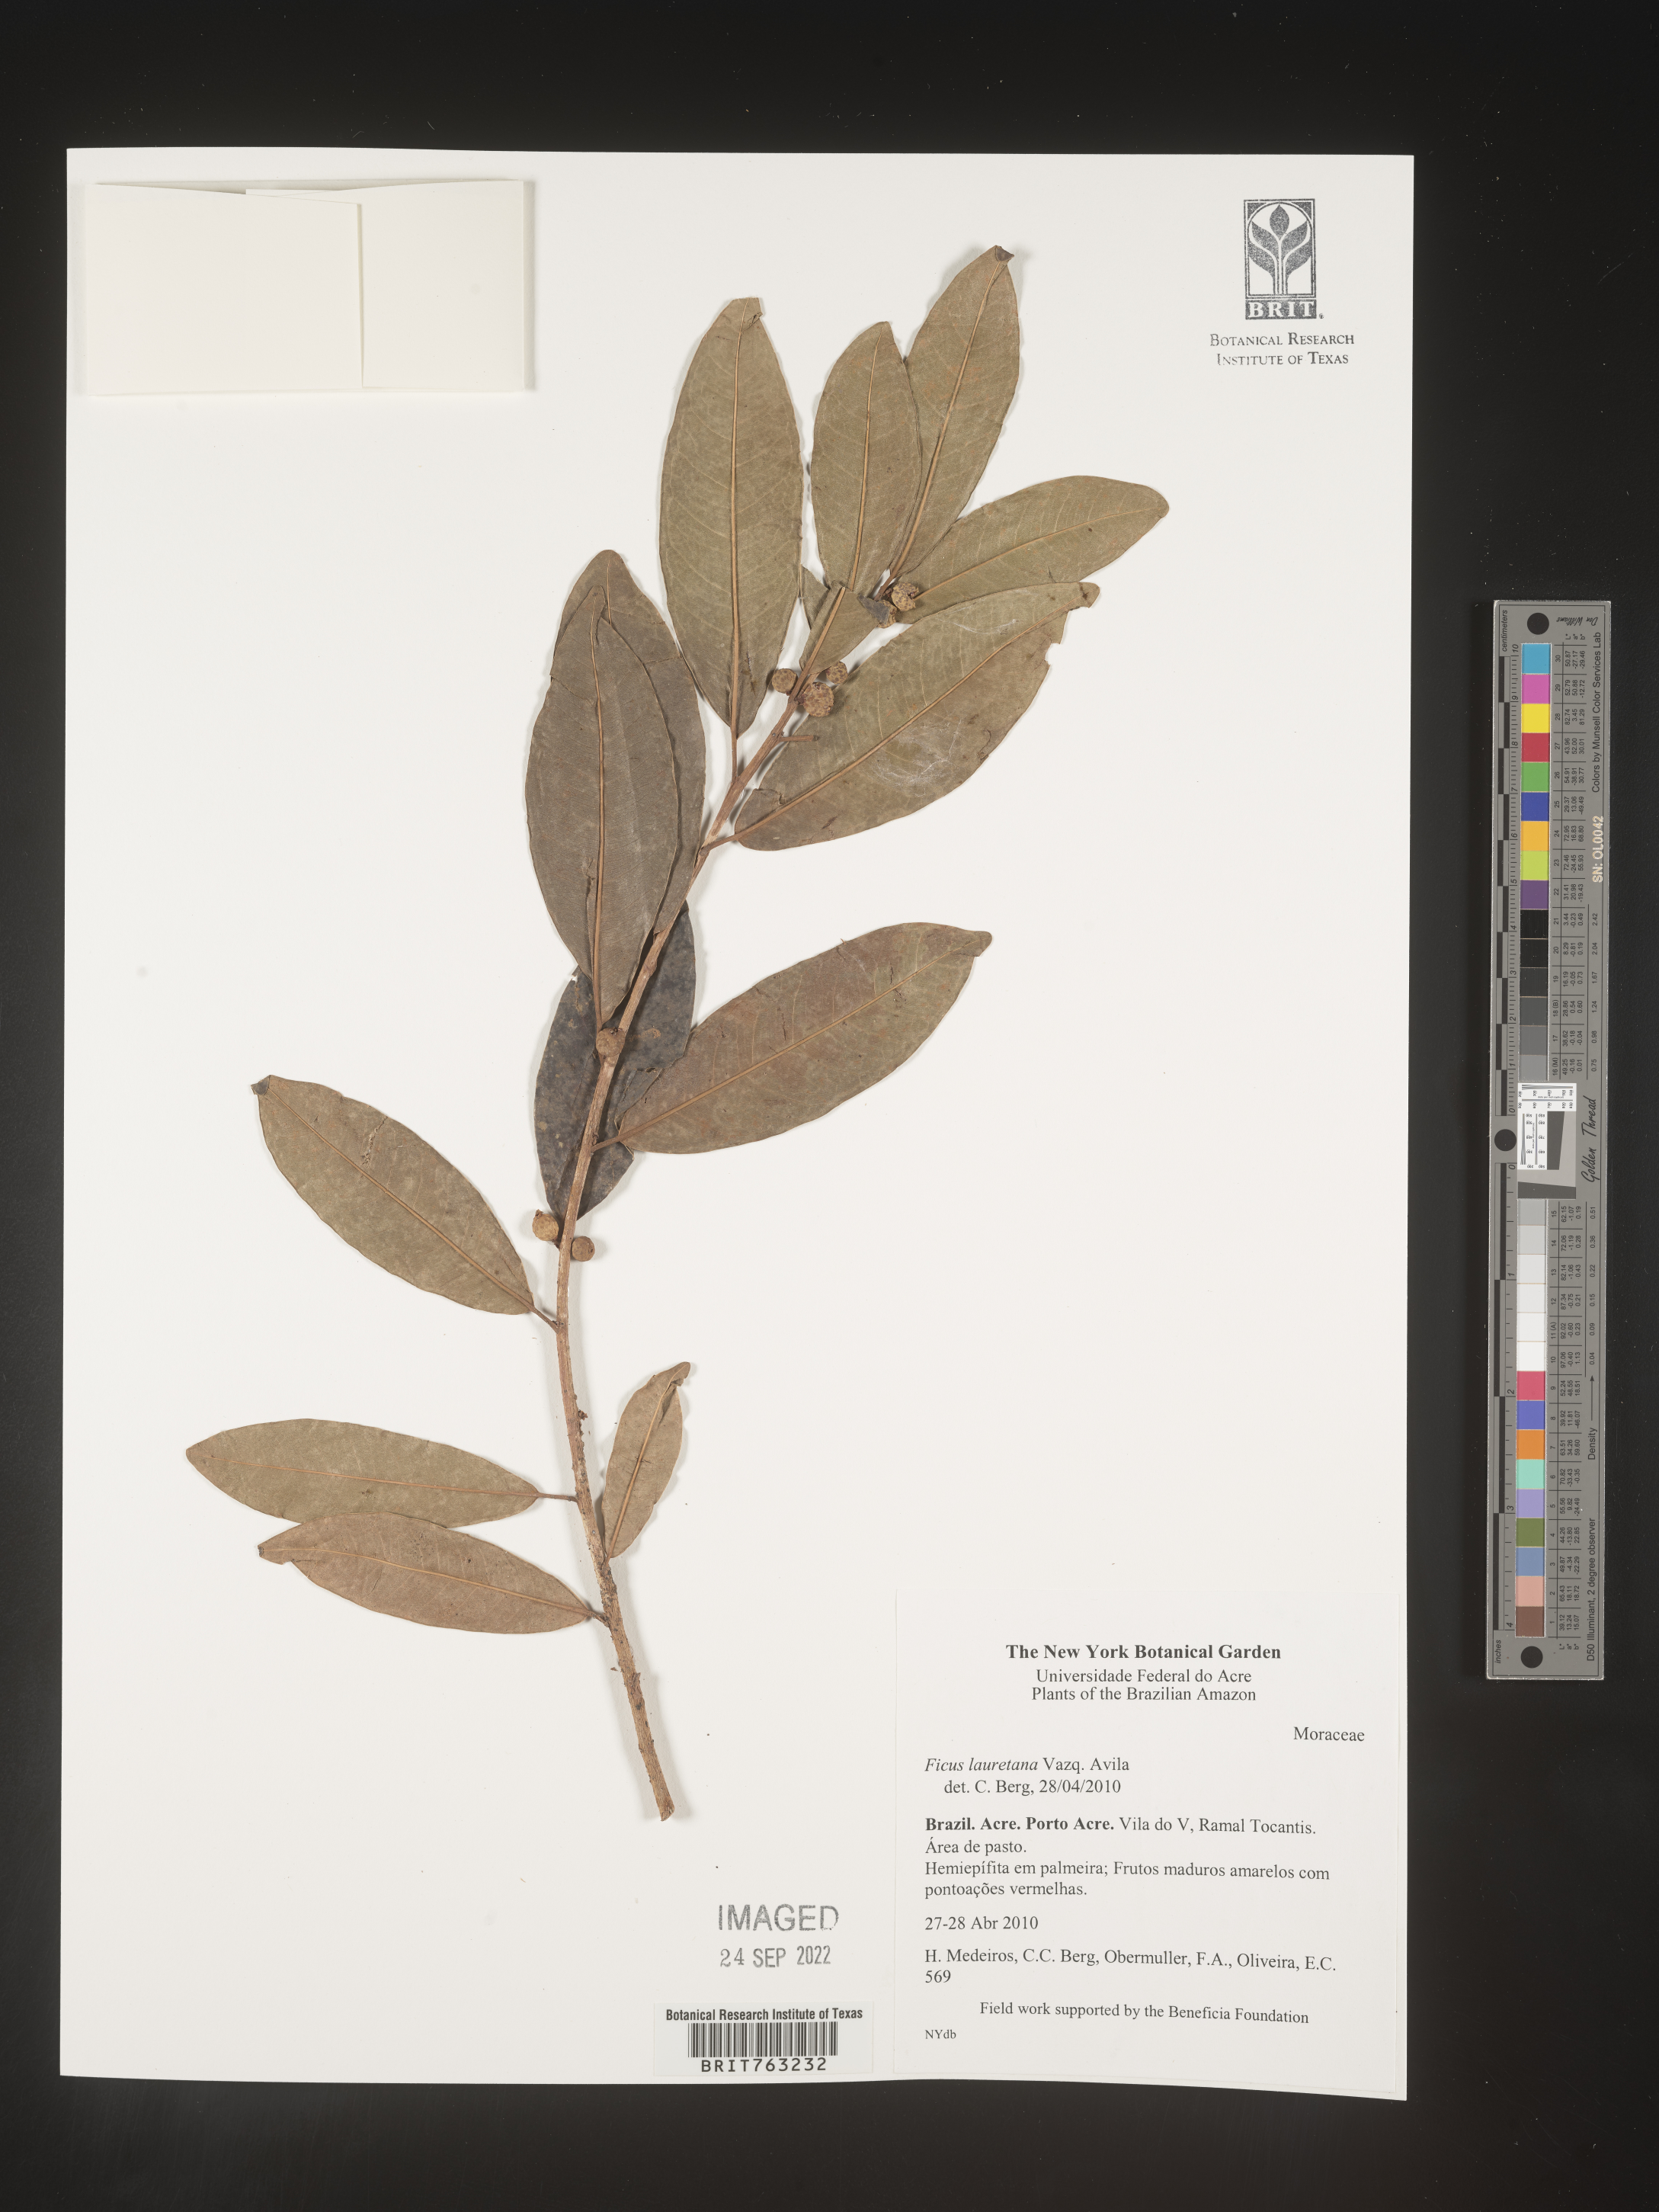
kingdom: Plantae
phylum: Tracheophyta
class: Magnoliopsida
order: Rosales
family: Moraceae
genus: Ficus
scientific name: Ficus lauretana
